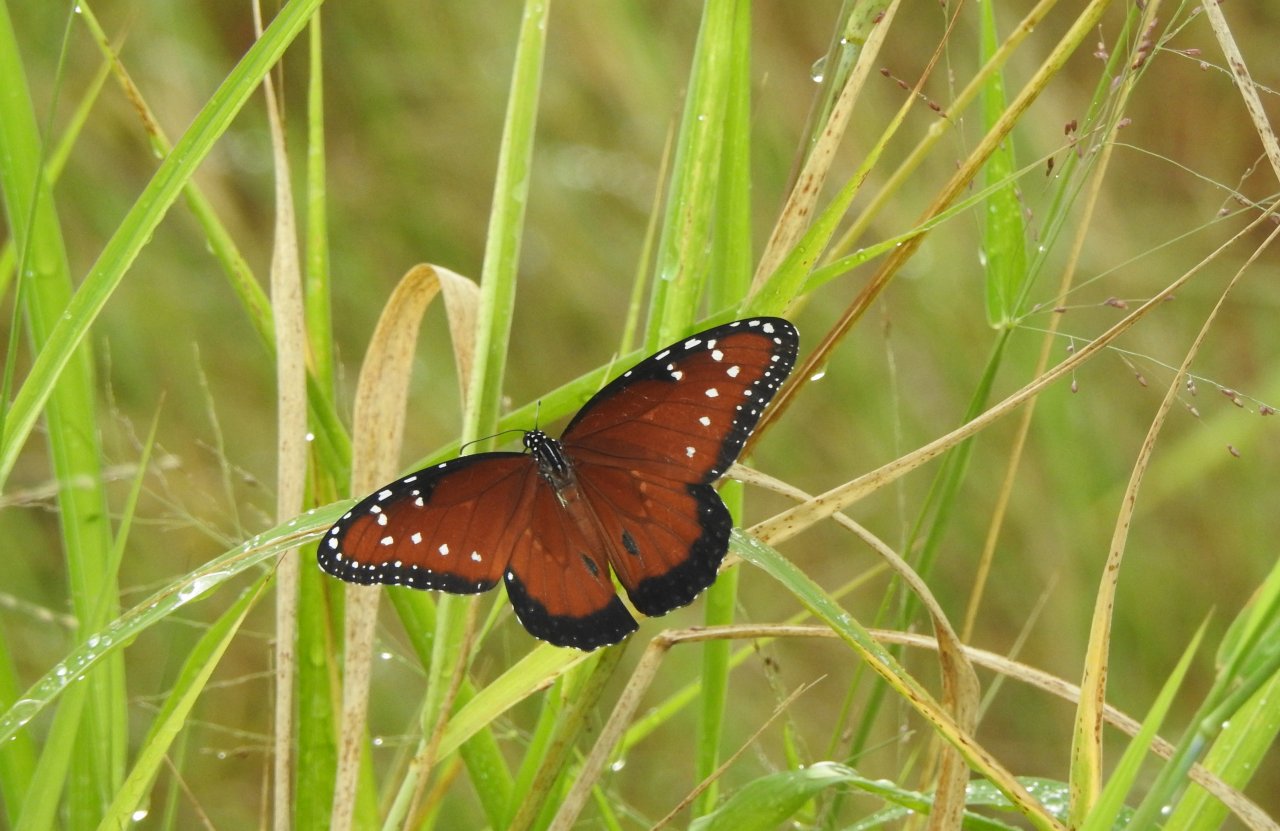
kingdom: Animalia
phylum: Arthropoda
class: Insecta
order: Lepidoptera
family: Nymphalidae
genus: Danaus
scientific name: Danaus gilippus
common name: Queen
